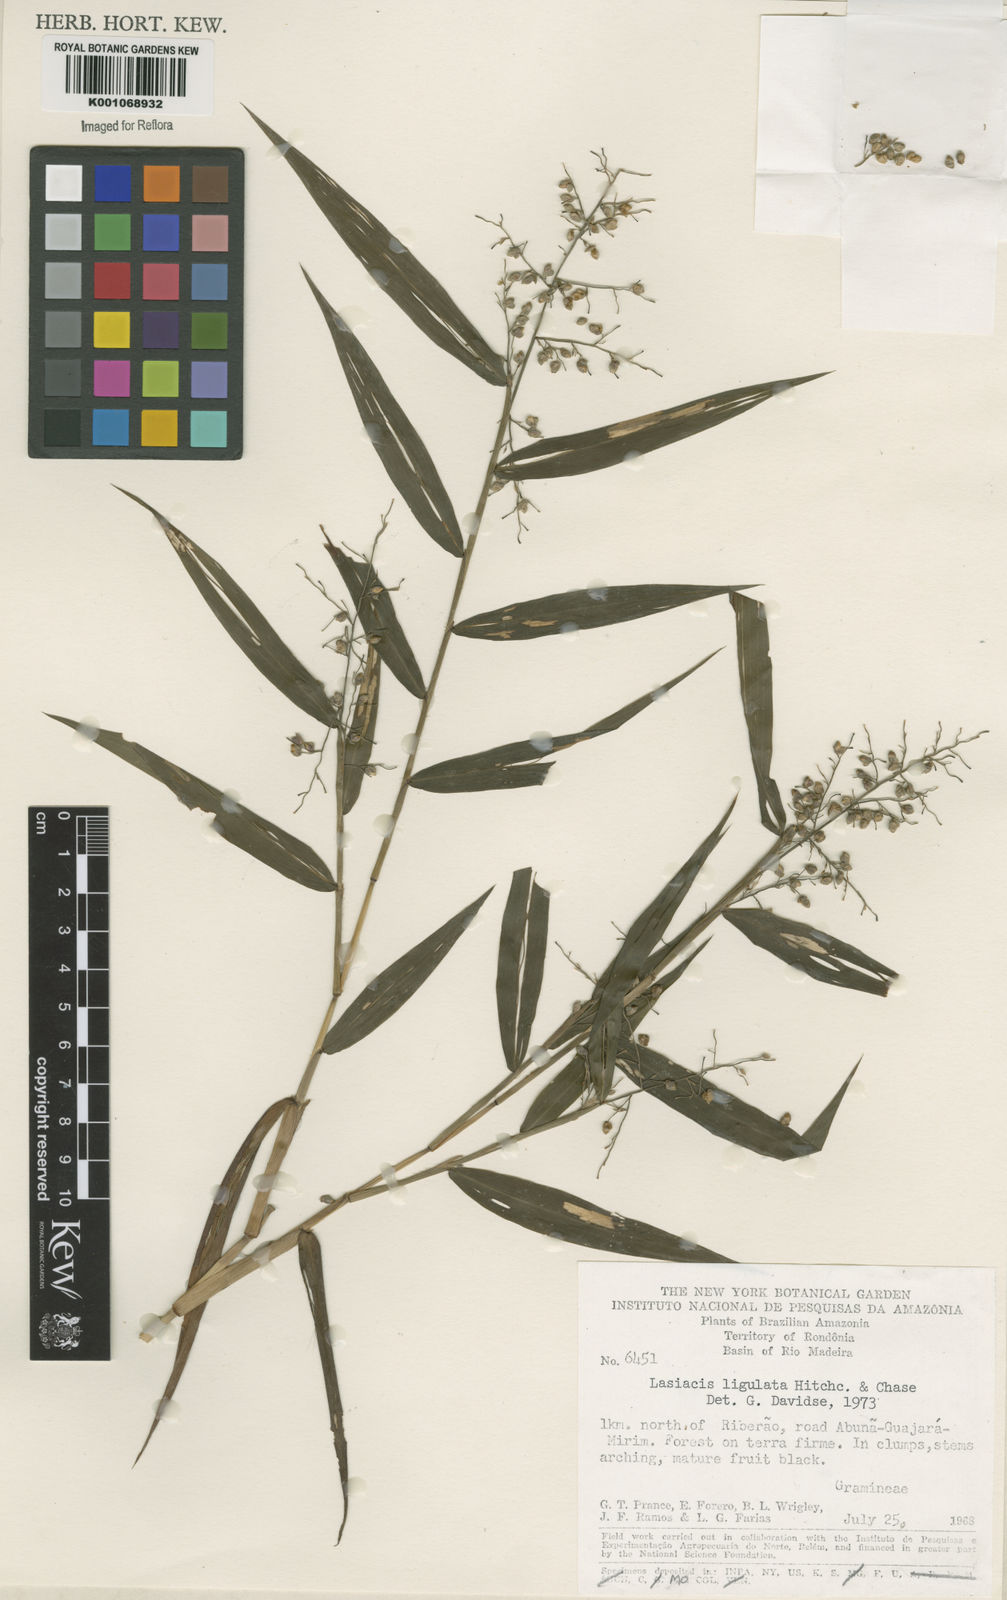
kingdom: Plantae
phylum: Tracheophyta
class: Liliopsida
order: Poales
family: Poaceae
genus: Lasiacis
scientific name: Lasiacis ligulata
